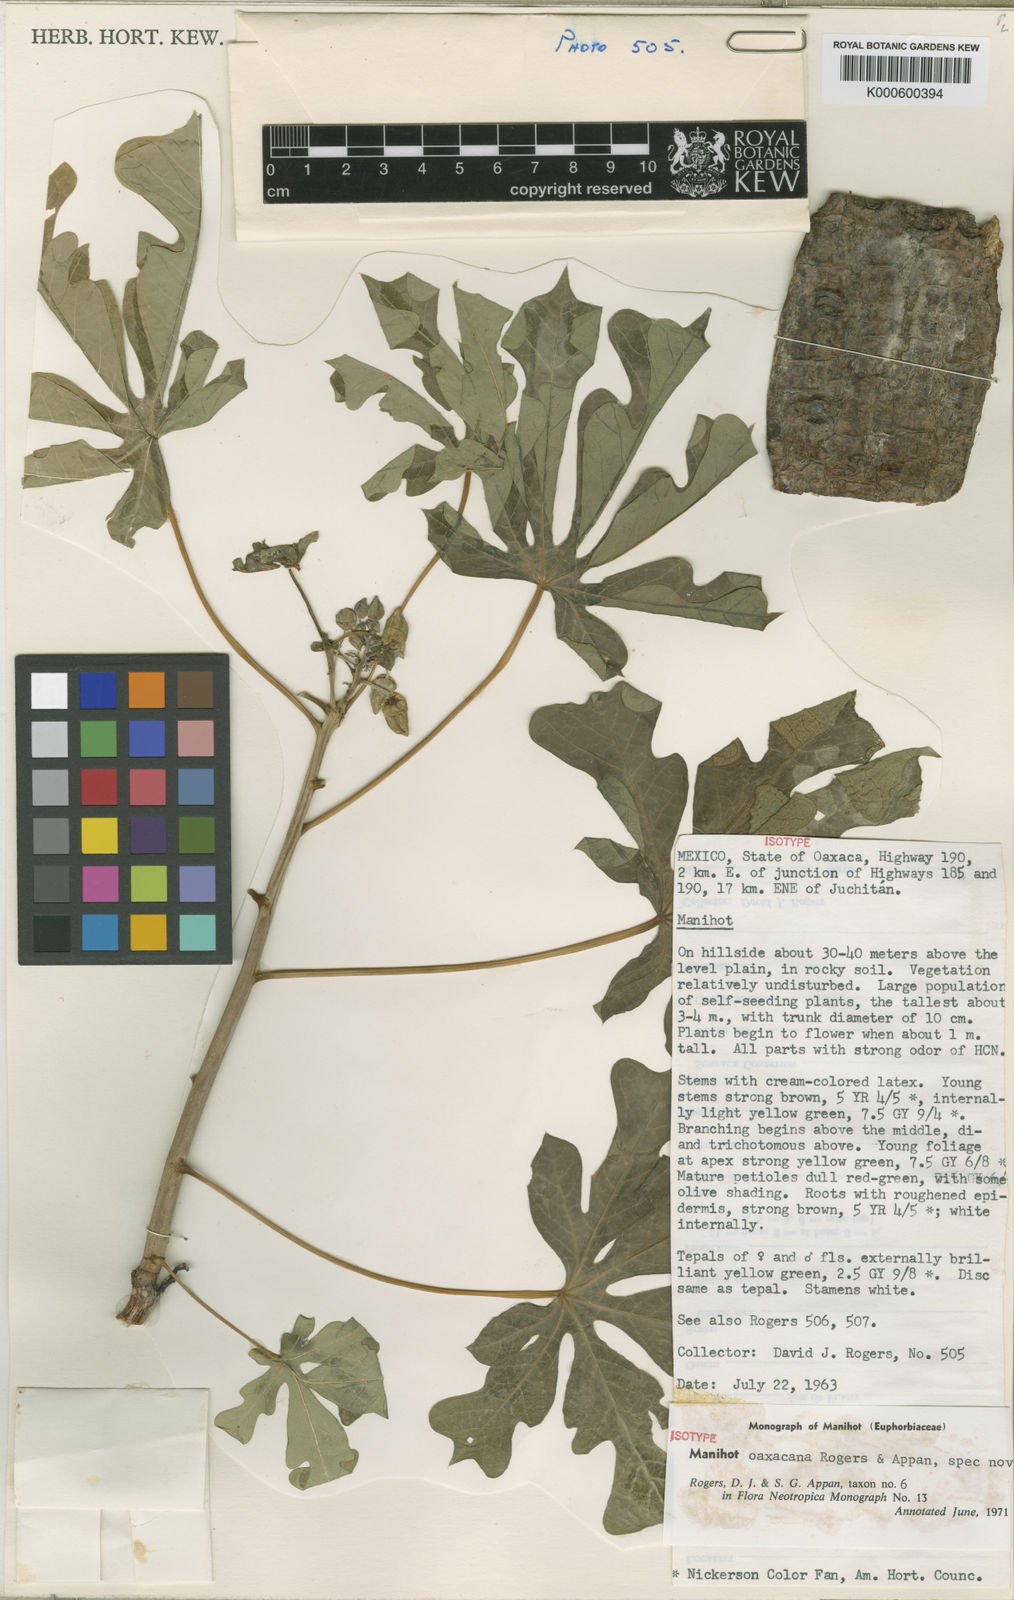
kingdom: Plantae
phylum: Tracheophyta
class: Magnoliopsida
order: Malpighiales
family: Euphorbiaceae
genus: Manihot
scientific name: Manihot oaxacana
